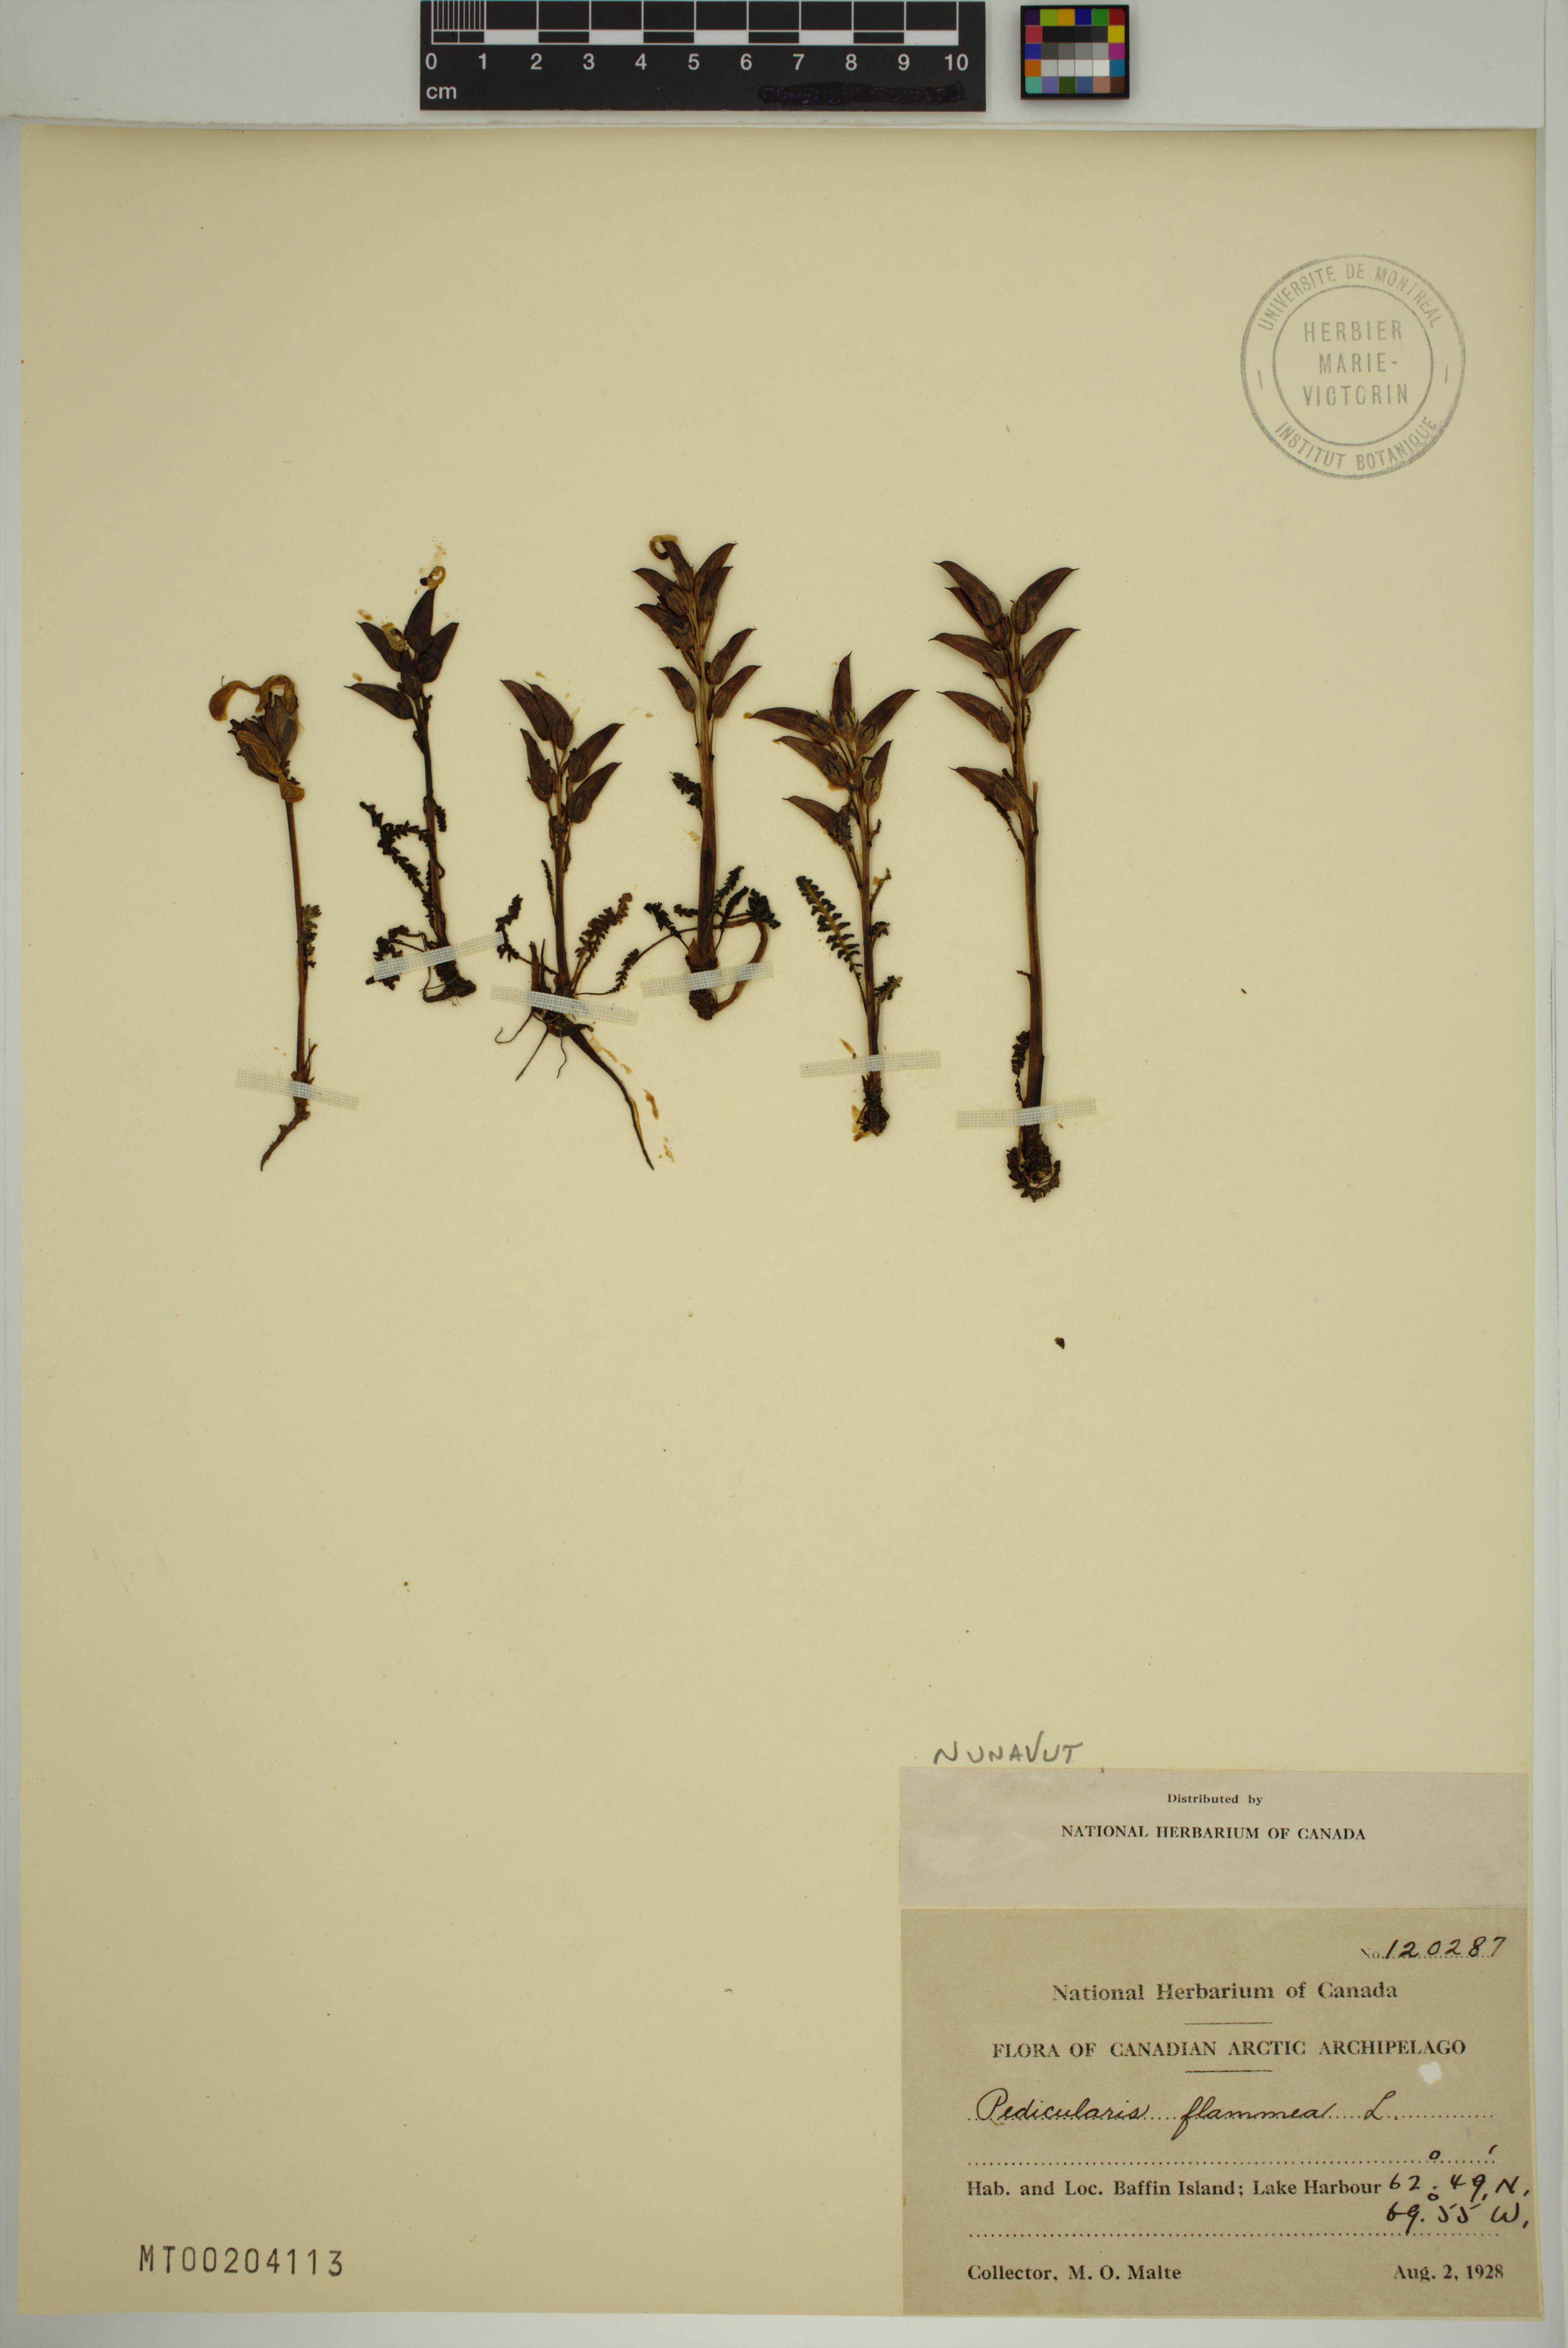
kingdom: Plantae
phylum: Tracheophyta
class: Magnoliopsida
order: Lamiales
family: Orobanchaceae
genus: Pedicularis
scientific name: Pedicularis flammea
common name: Flame-coloured lousewort
